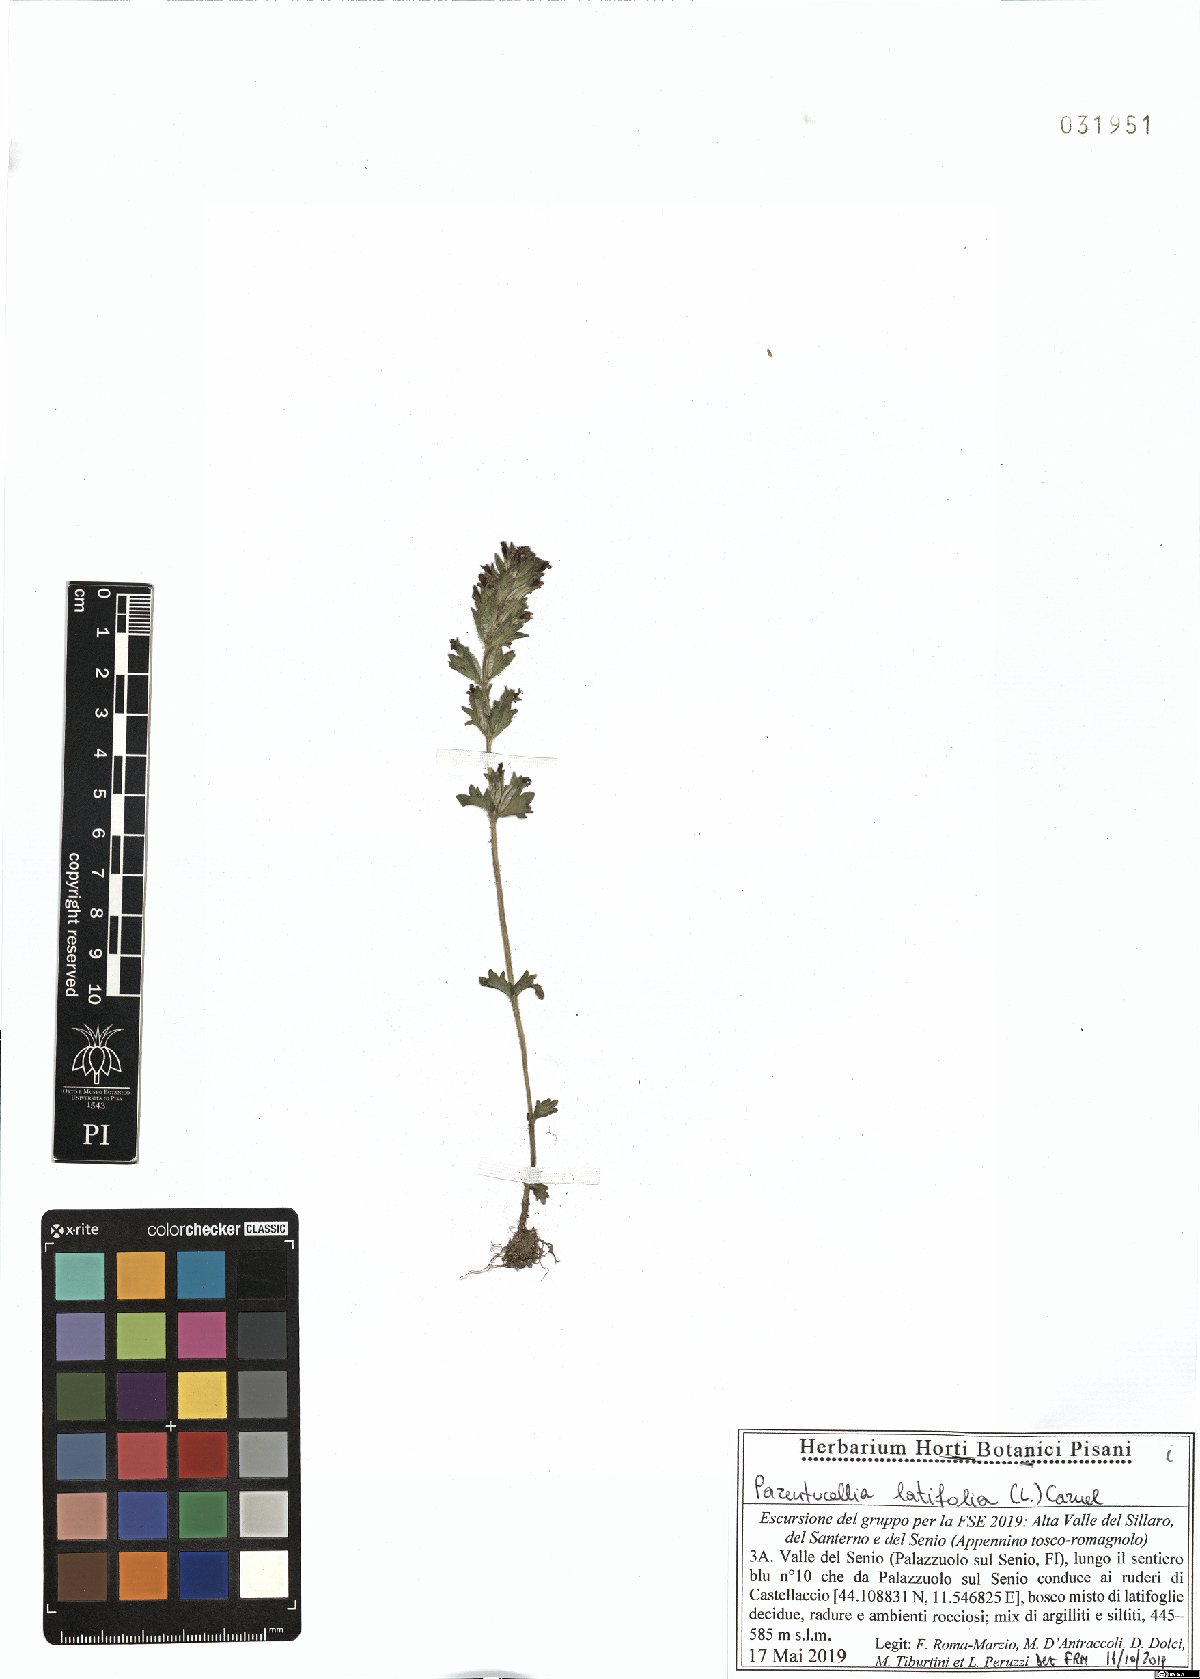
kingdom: Plantae
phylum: Tracheophyta
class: Magnoliopsida
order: Lamiales
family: Orobanchaceae
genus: Parentucellia
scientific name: Parentucellia latifolia
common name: Broadleaf glandweed
